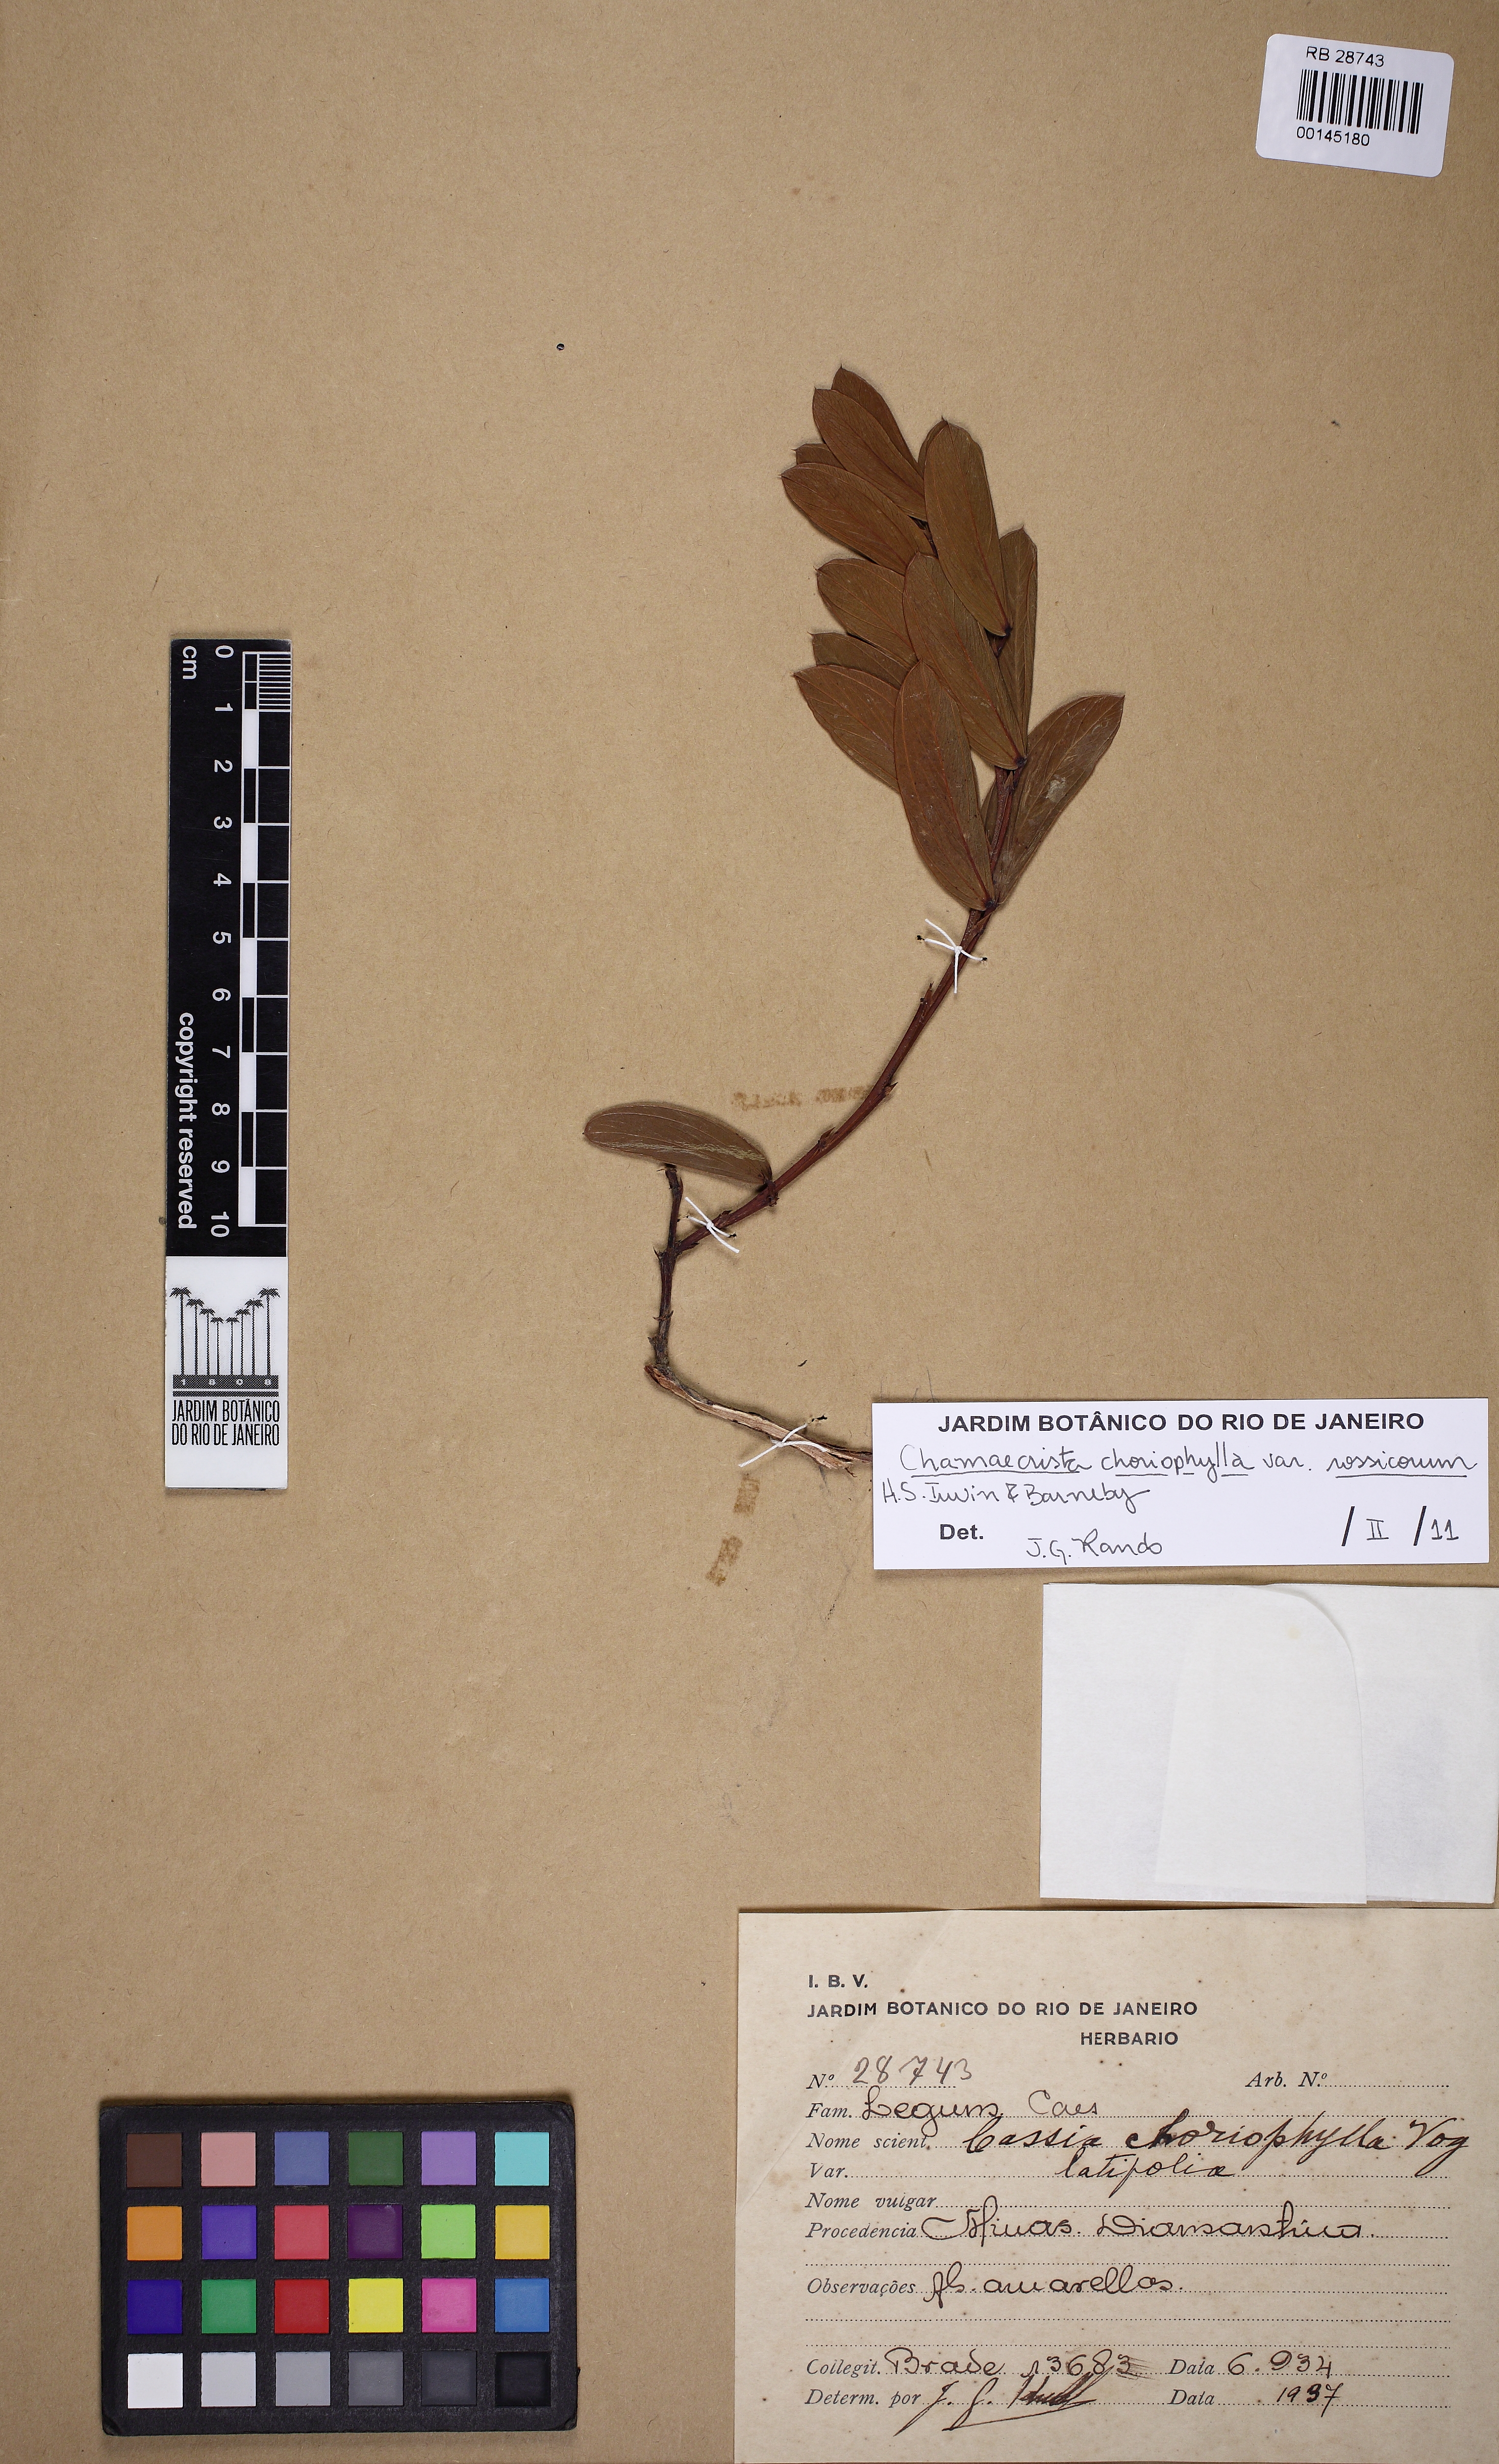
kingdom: Plantae
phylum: Tracheophyta
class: Magnoliopsida
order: Fabales
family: Fabaceae
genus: Chamaecrista
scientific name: Chamaecrista rossicorum
